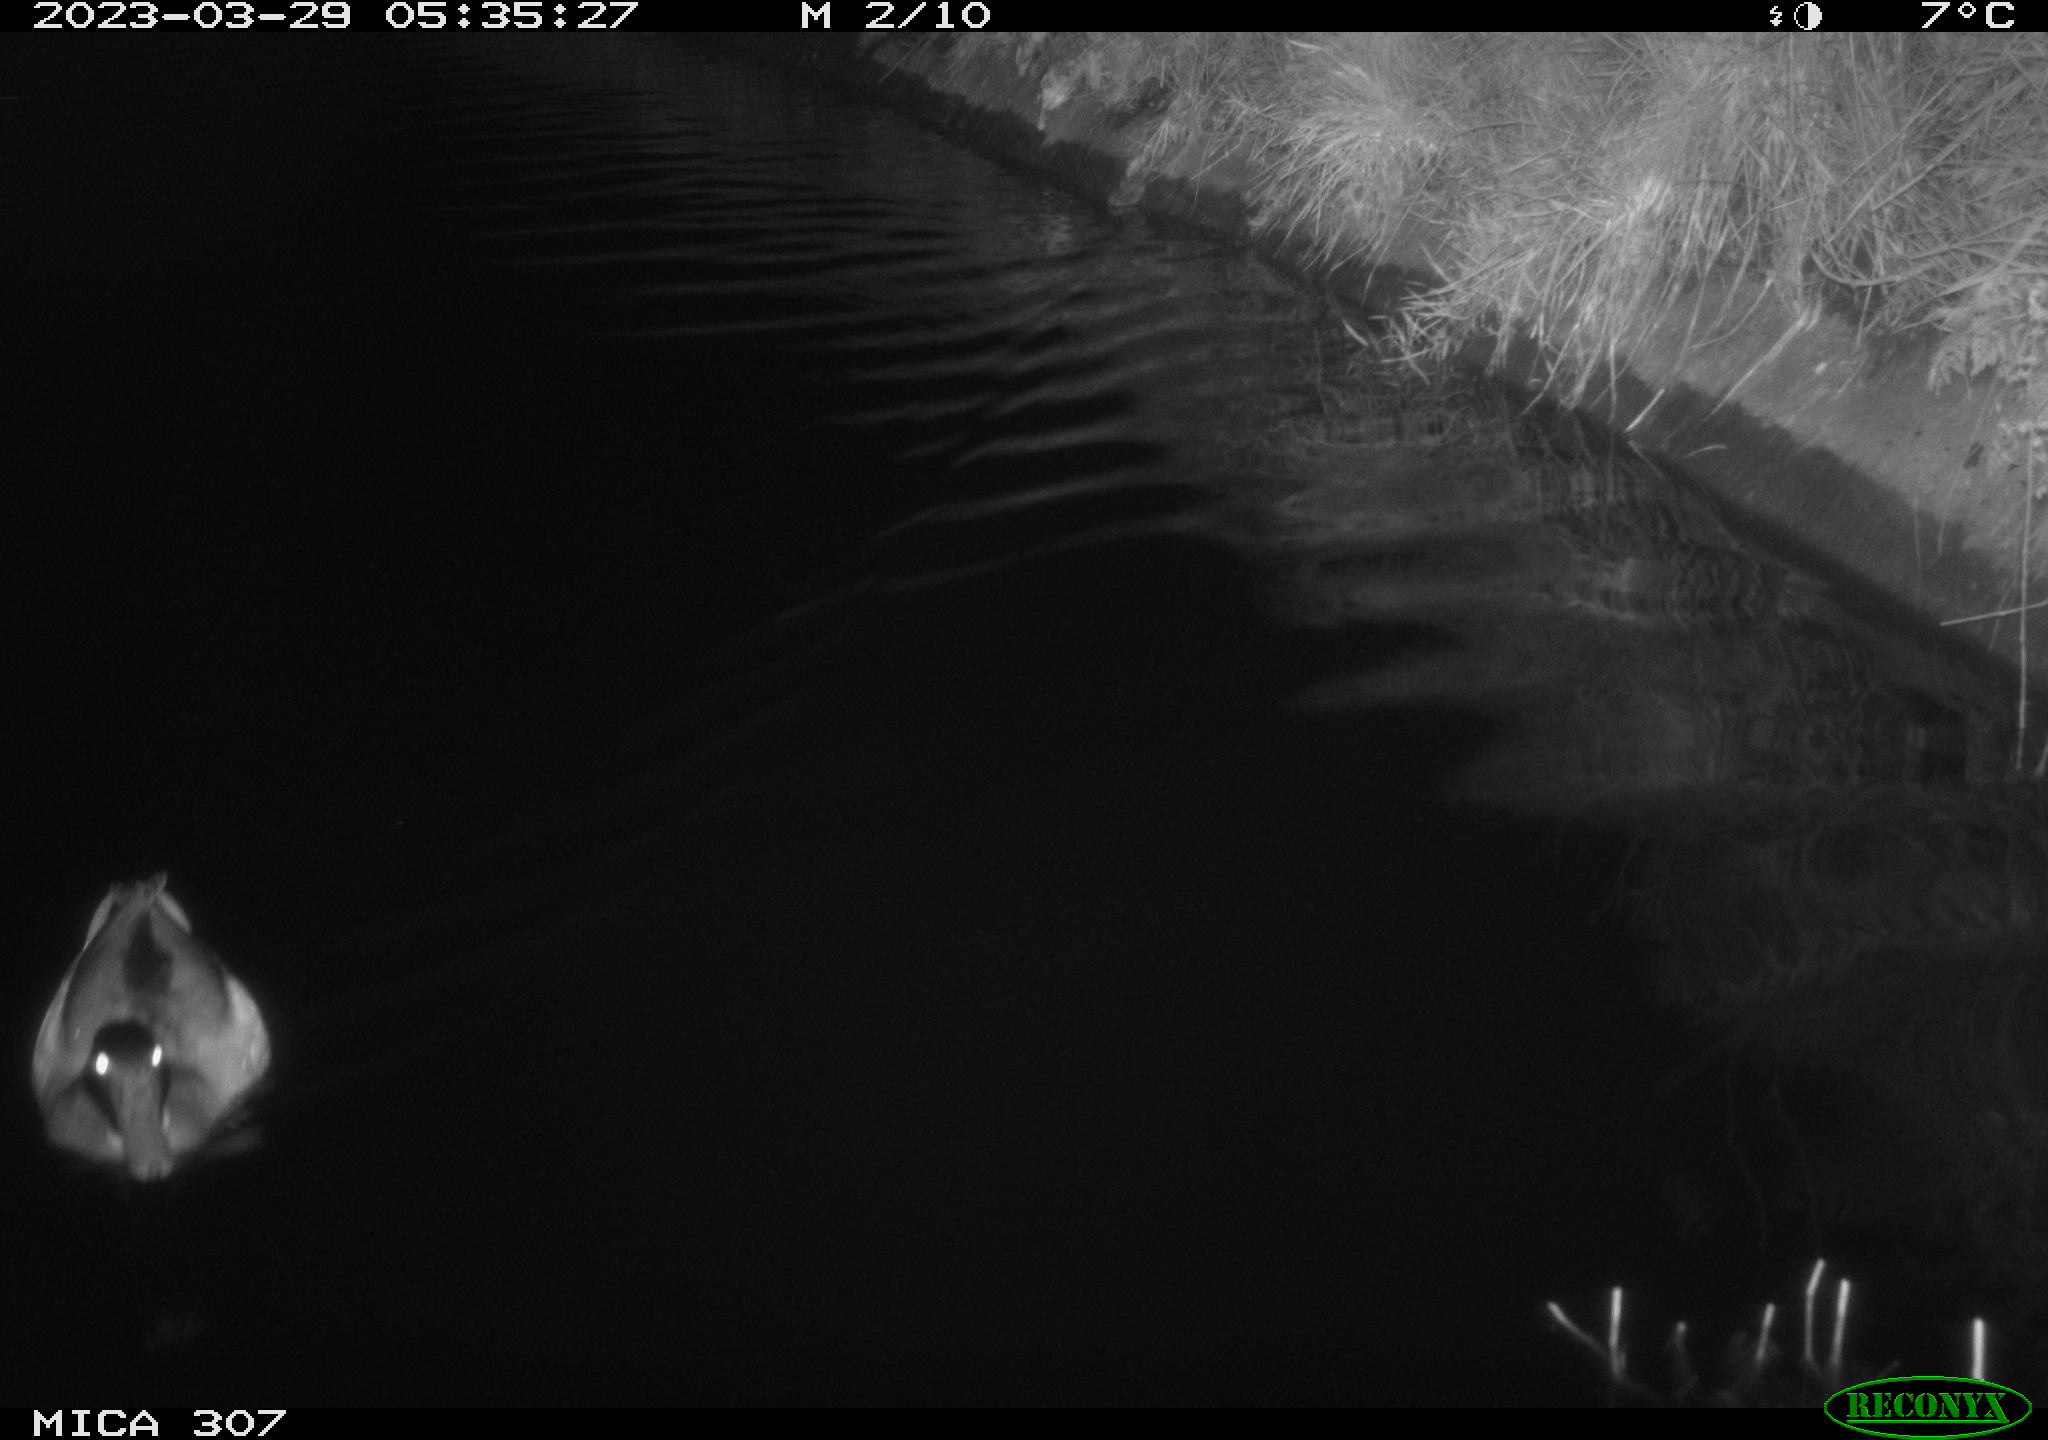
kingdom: Animalia
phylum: Chordata
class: Aves
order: Anseriformes
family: Anatidae
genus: Anas
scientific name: Anas
